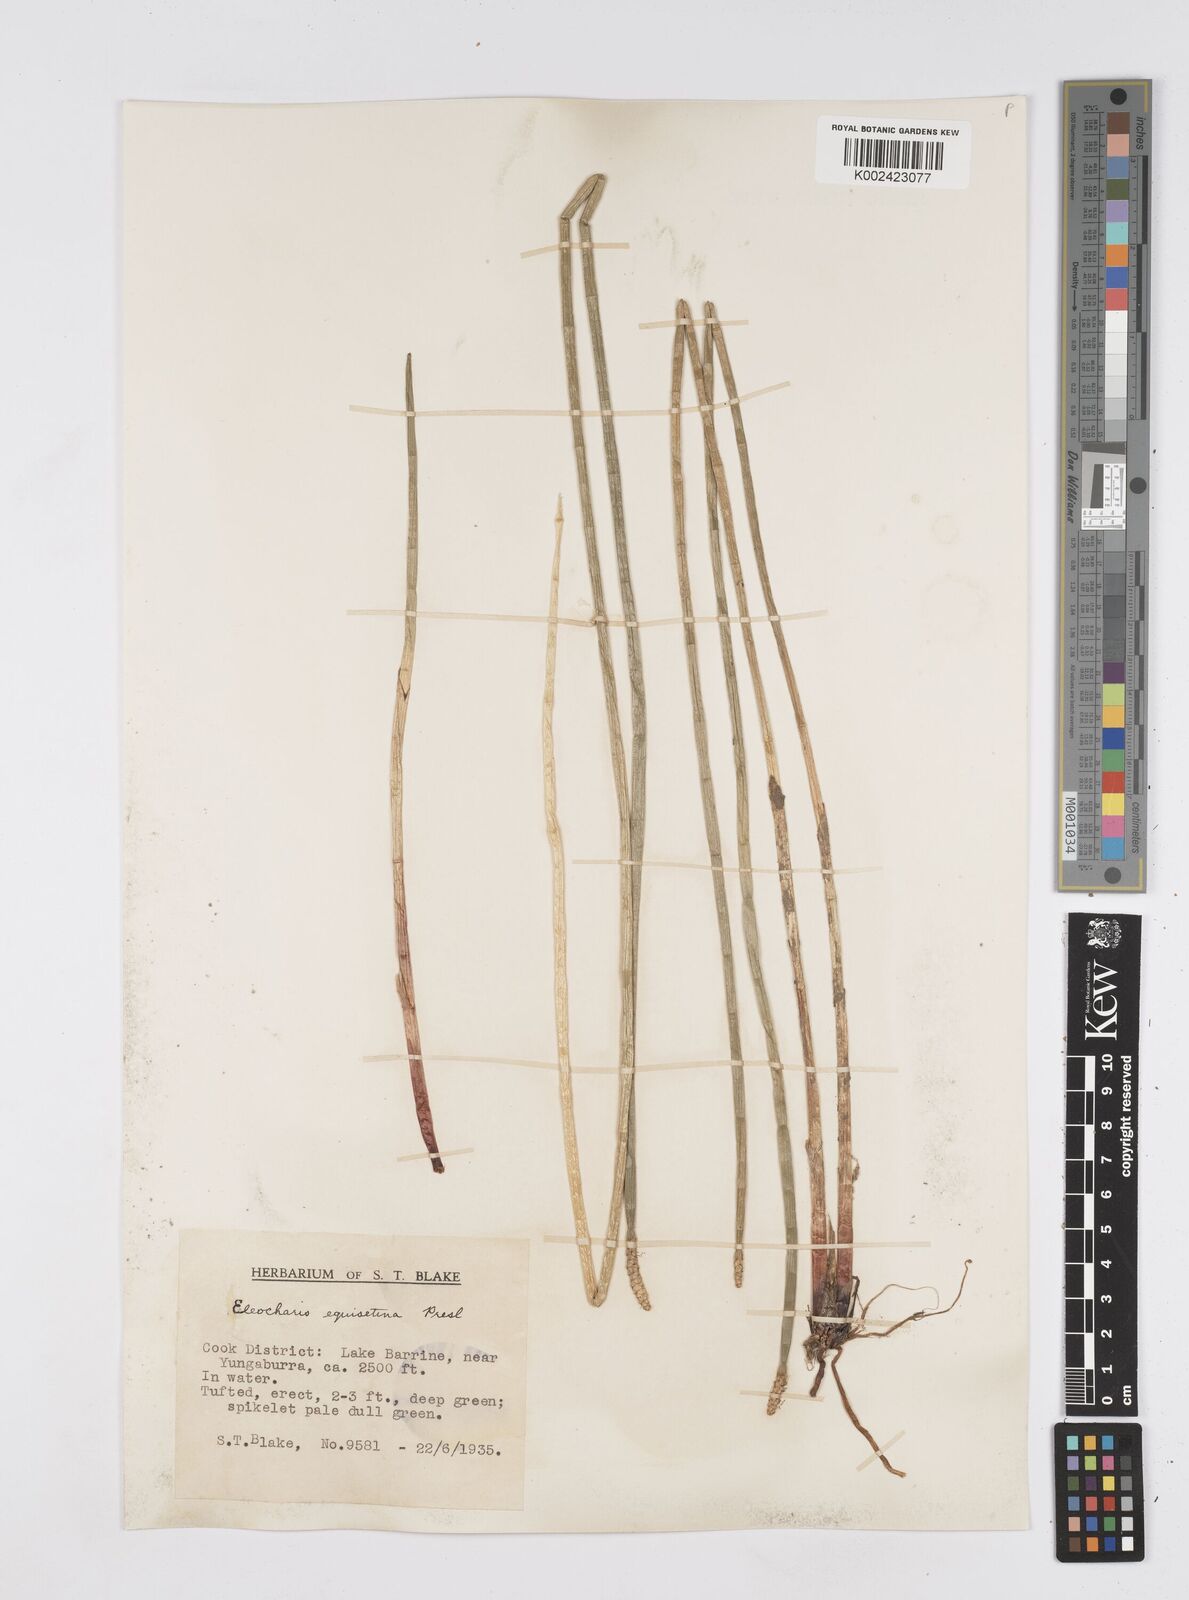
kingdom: Plantae
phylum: Tracheophyta
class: Liliopsida
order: Poales
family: Cyperaceae
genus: Eleocharis
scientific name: Eleocharis dulcis
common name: Chinese water chestnut
